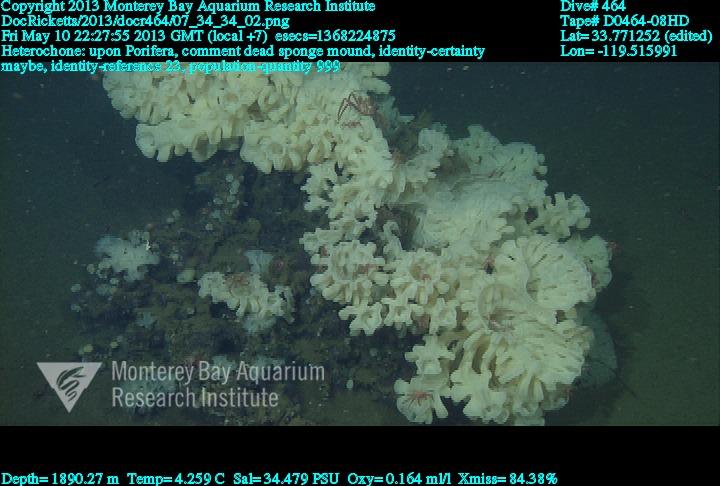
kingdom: Animalia
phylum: Porifera
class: Hexactinellida
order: Sceptrulophora
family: Aphrocallistidae
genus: Heterochone
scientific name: Heterochone
